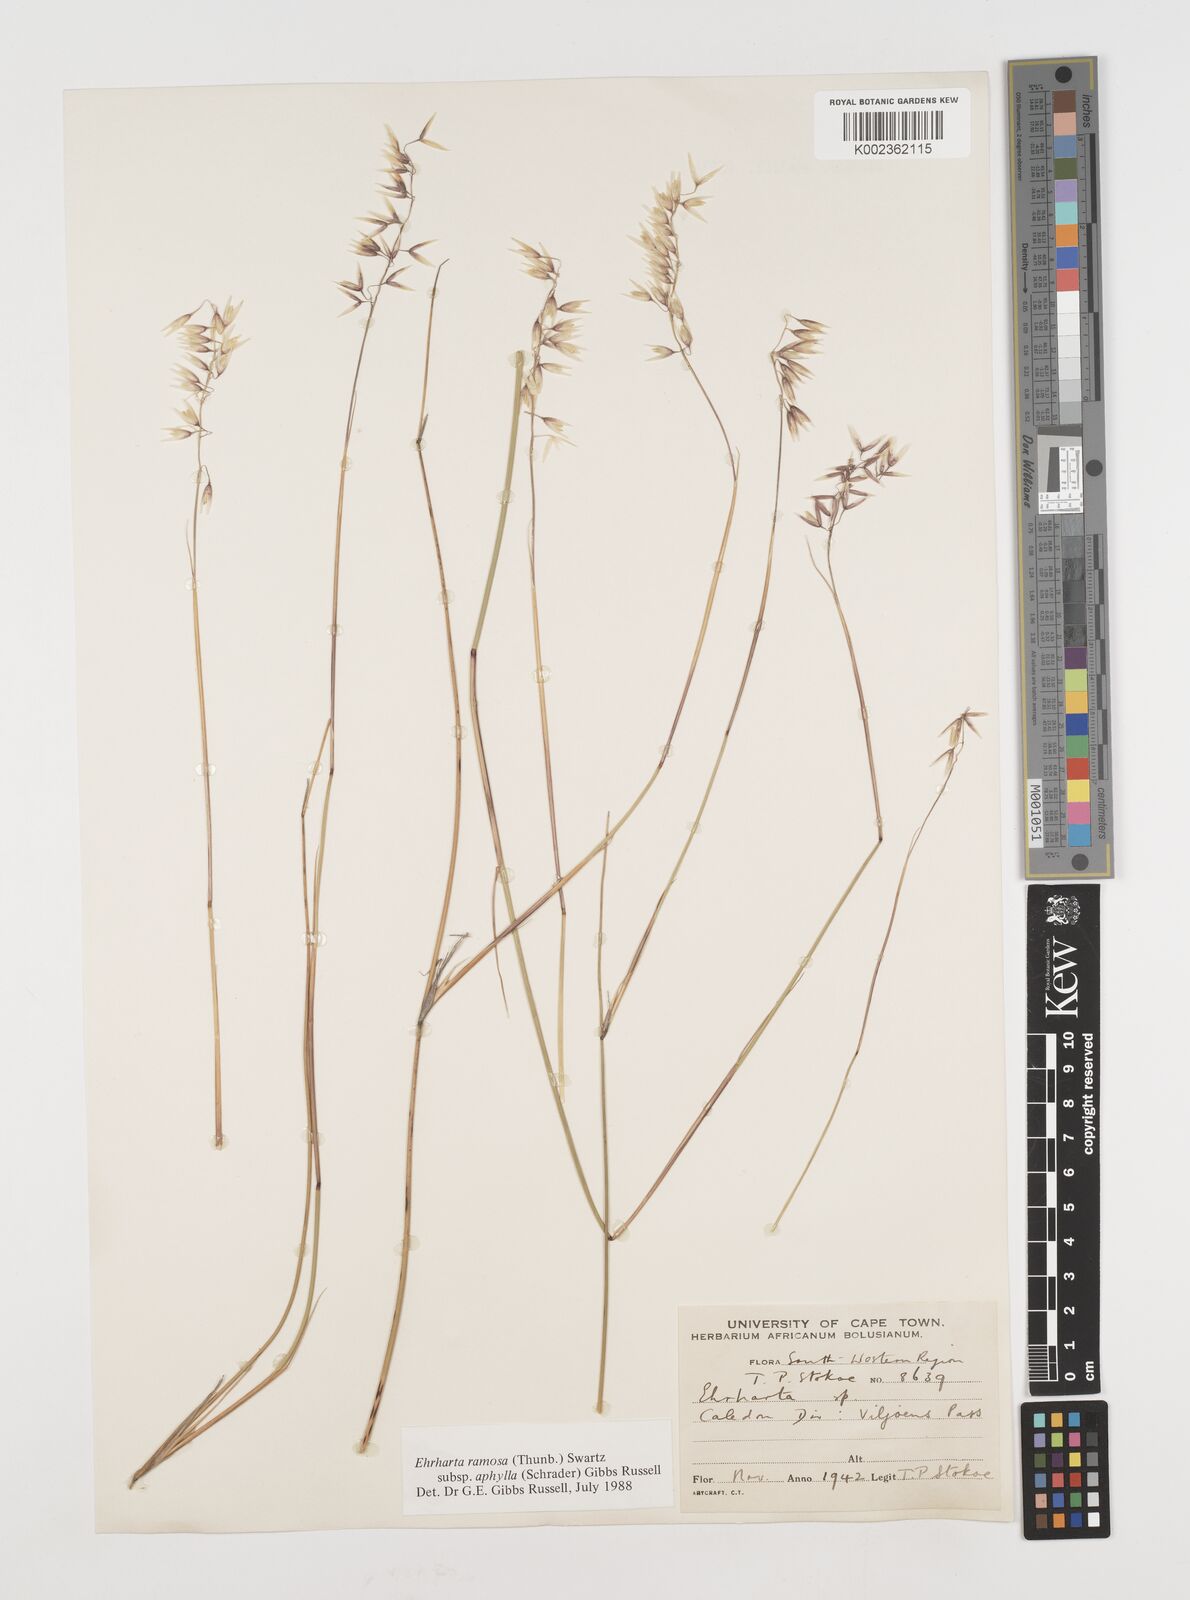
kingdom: Plantae
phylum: Tracheophyta
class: Liliopsida
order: Poales
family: Poaceae
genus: Ehrharta
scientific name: Ehrharta digyna
